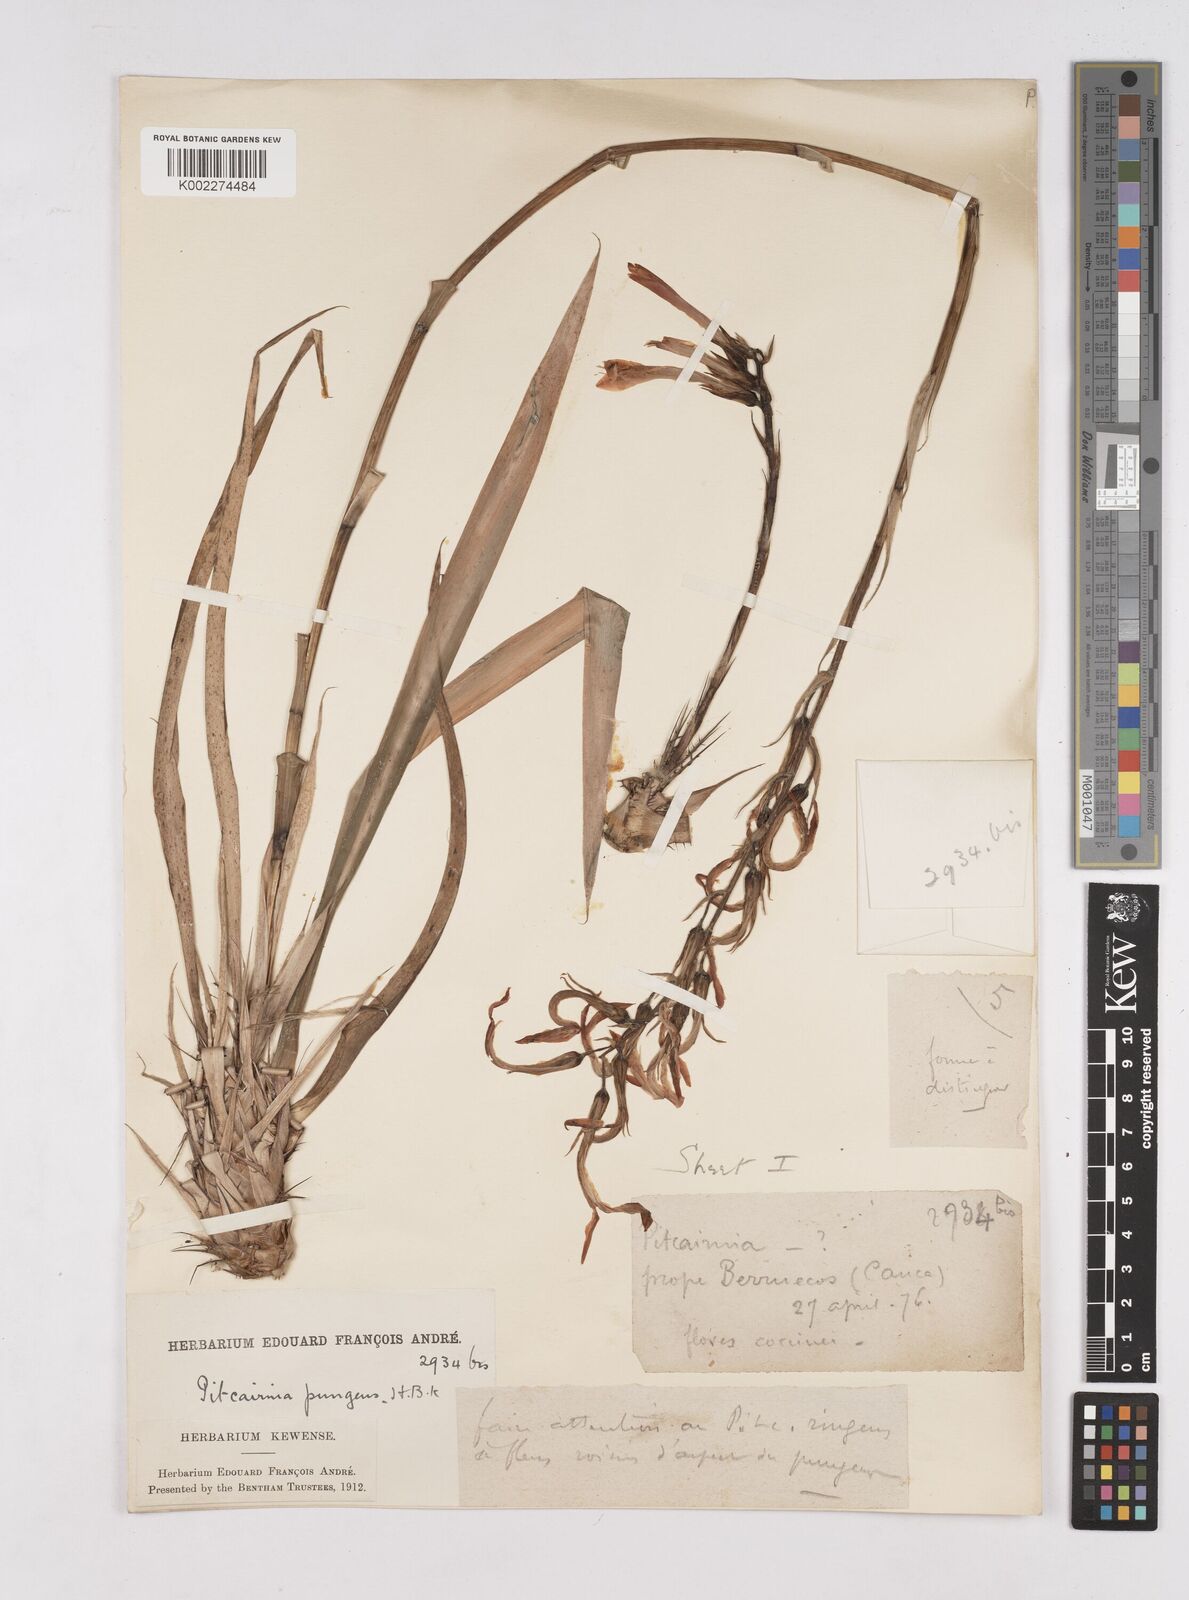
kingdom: Plantae
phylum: Tracheophyta
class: Liliopsida
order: Poales
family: Bromeliaceae
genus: Pitcairnia
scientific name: Pitcairnia pungens
